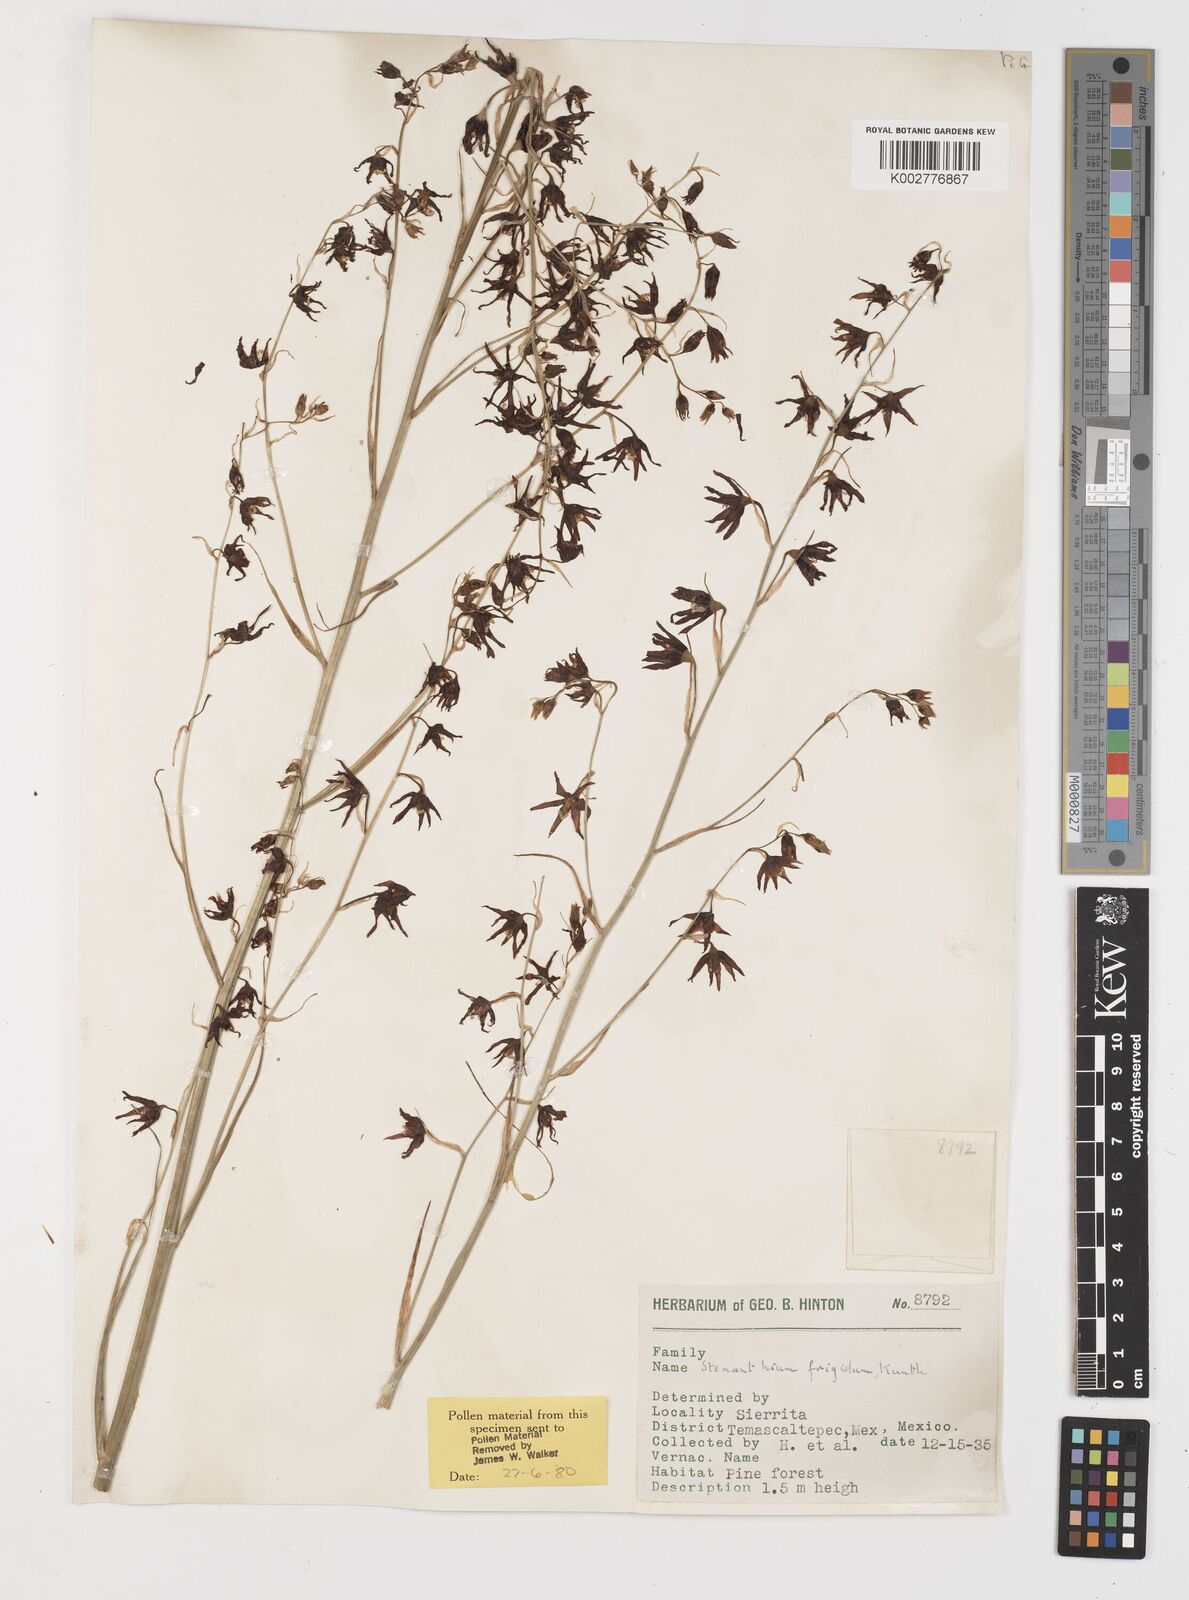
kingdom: Plantae
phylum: Tracheophyta
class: Liliopsida
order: Liliales
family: Melanthiaceae
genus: Anticlea
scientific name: Anticlea frigida
